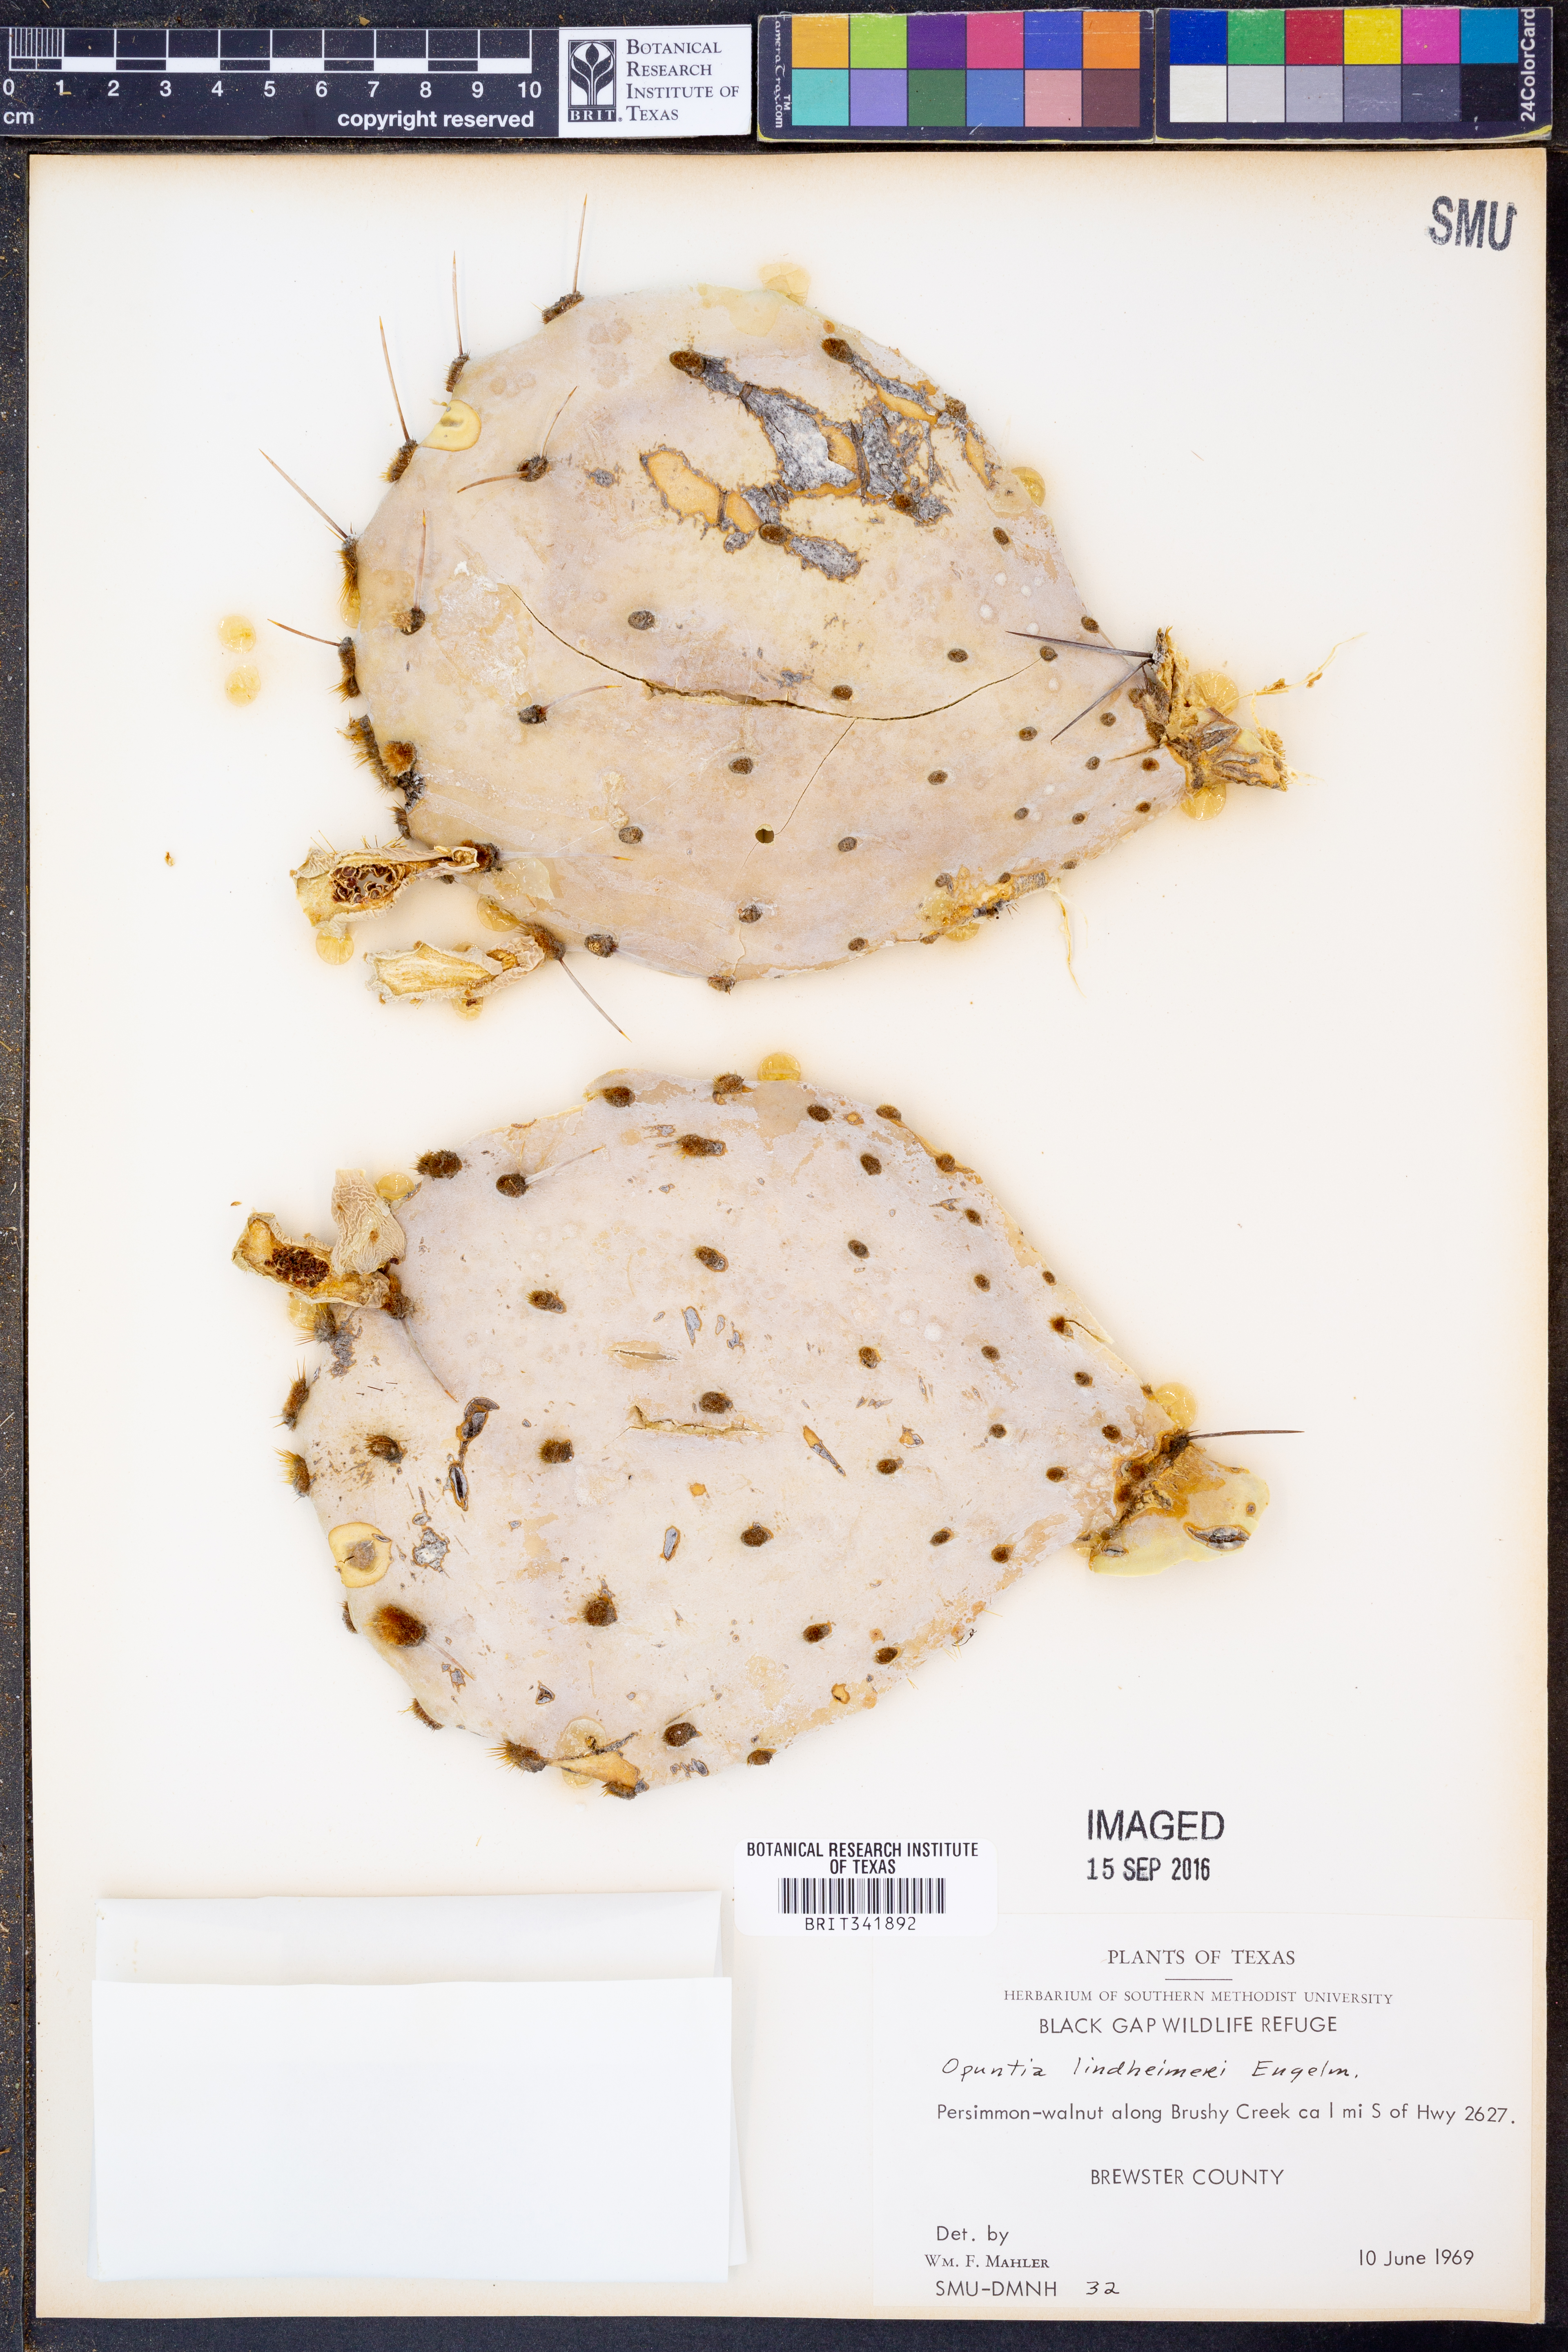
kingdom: Plantae
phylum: Tracheophyta
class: Magnoliopsida
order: Caryophyllales
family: Cactaceae
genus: Opuntia
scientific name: Opuntia engelmannii
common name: Cactus-apple
